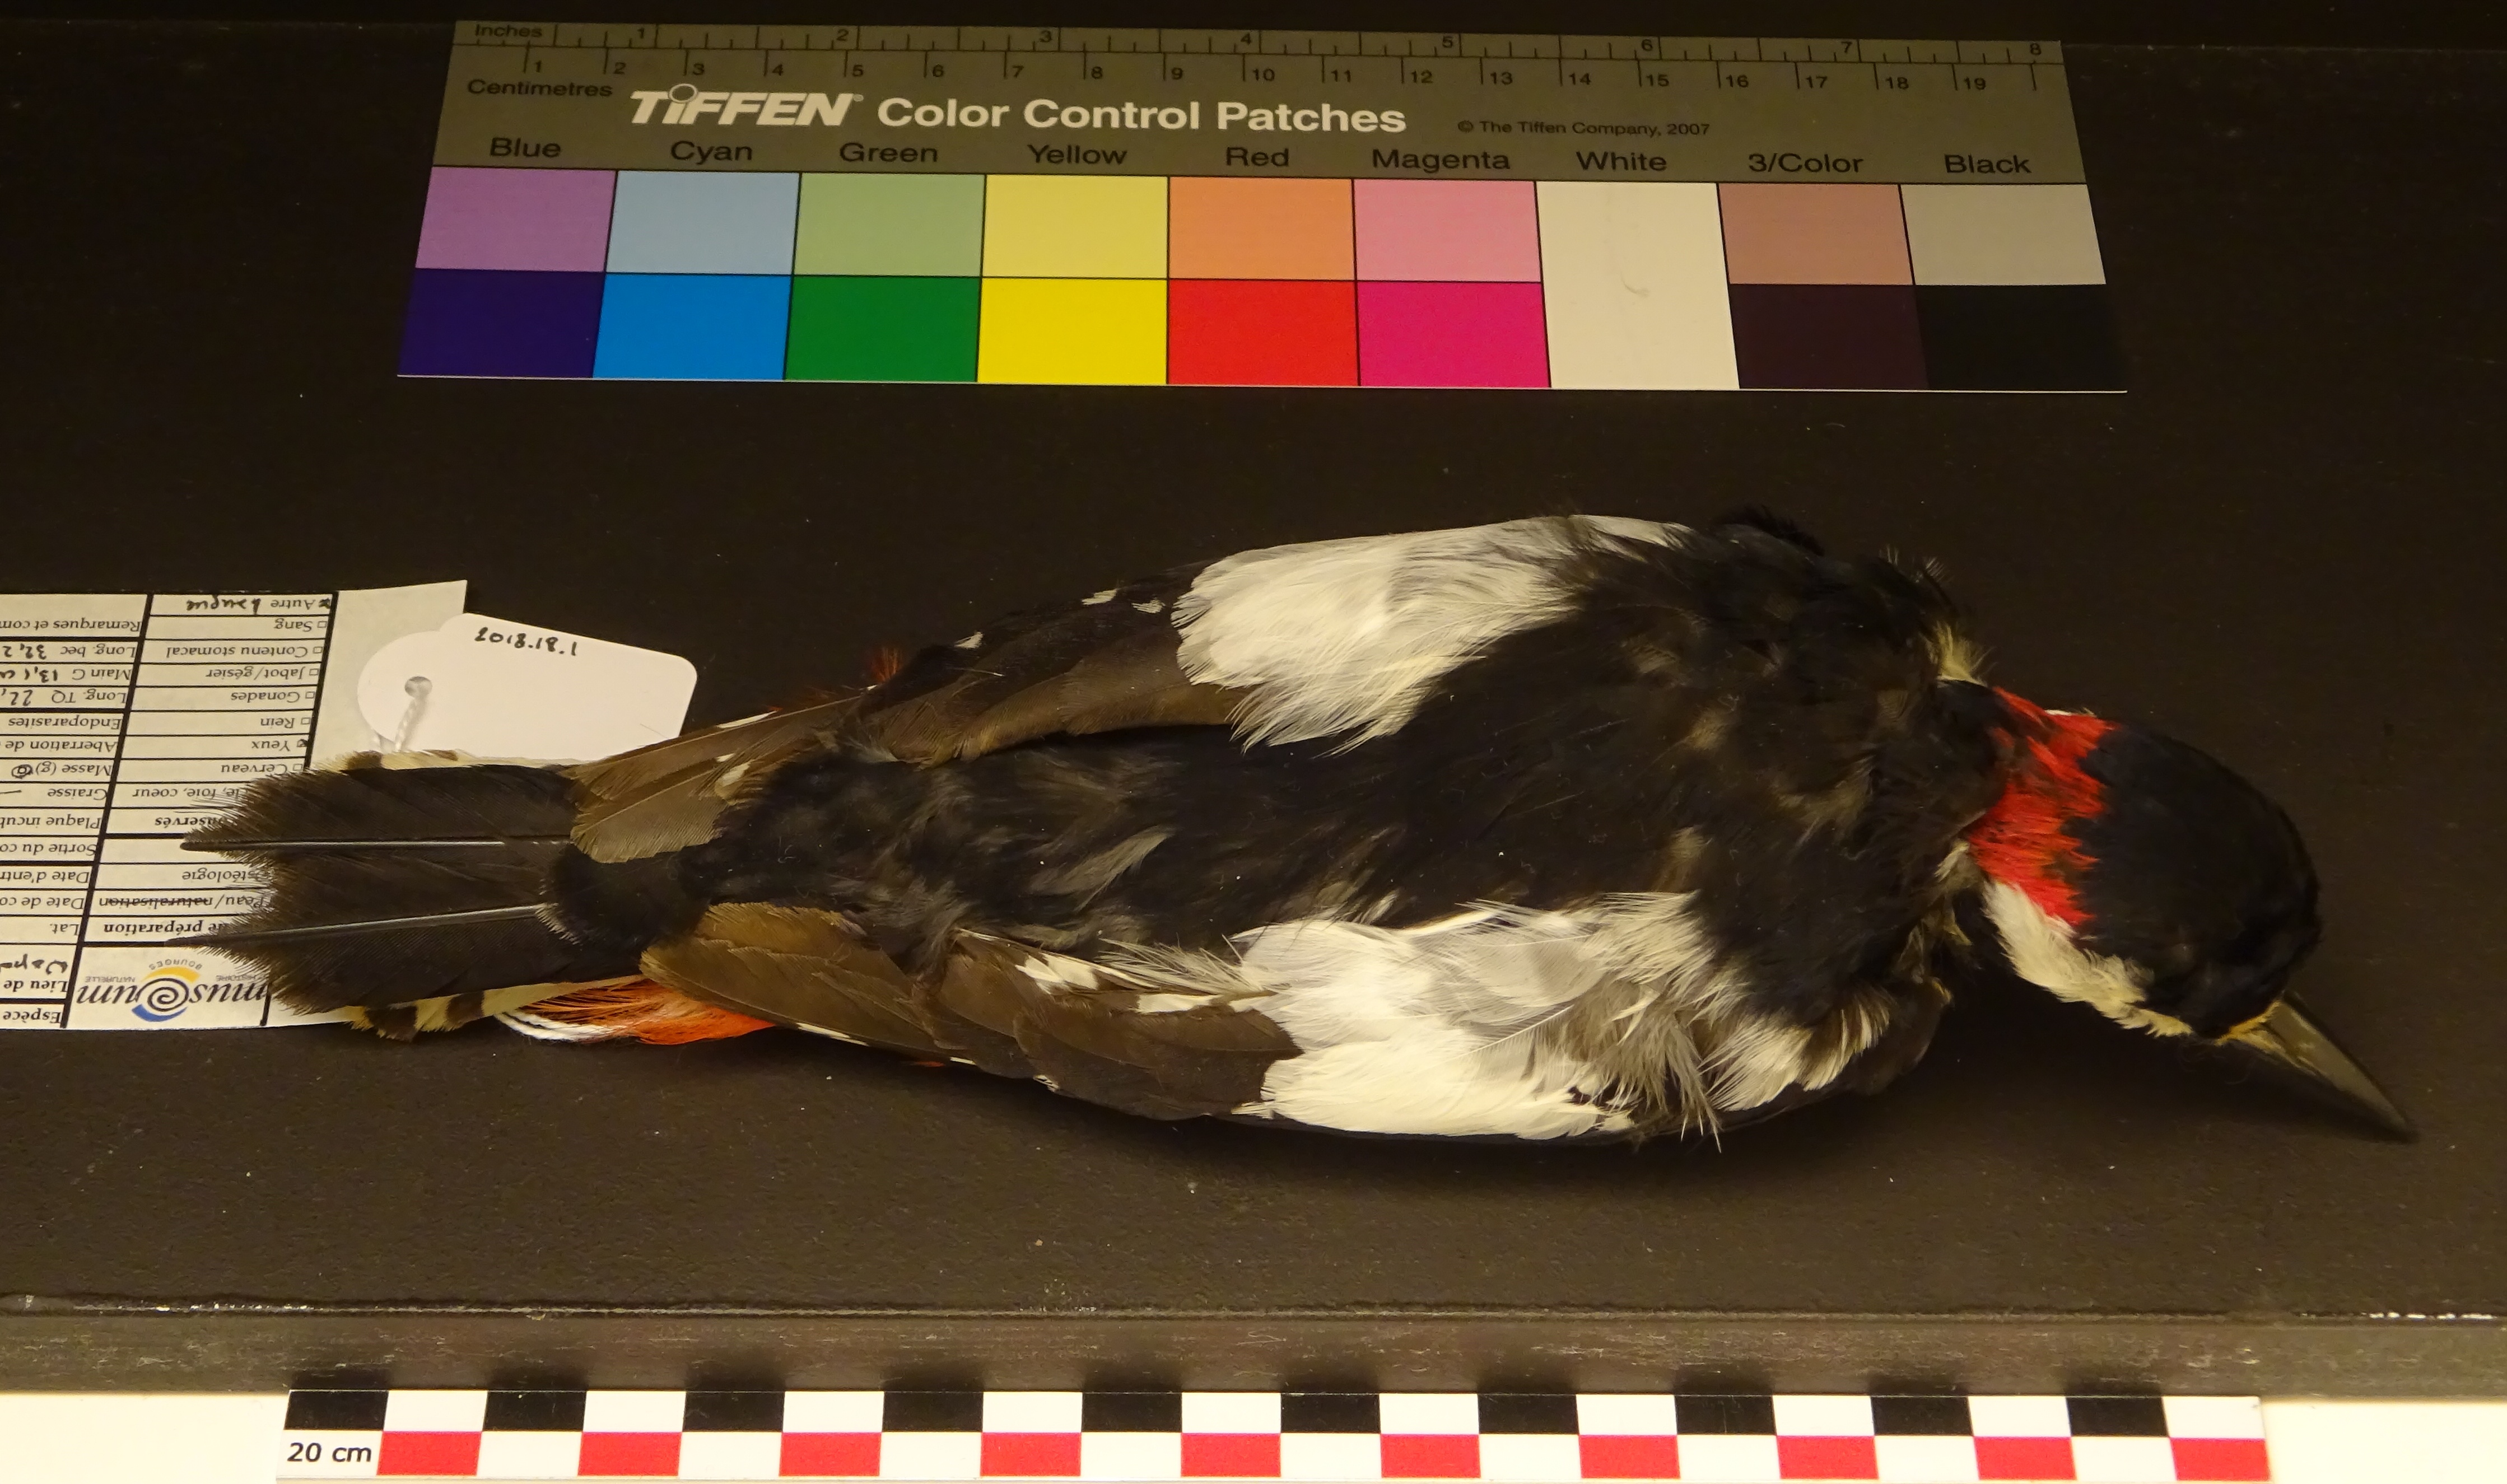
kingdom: Animalia
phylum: Chordata
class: Aves
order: Piciformes
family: Picidae
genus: Dendrocopos
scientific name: Dendrocopos major
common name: Great spotted woodpecker
